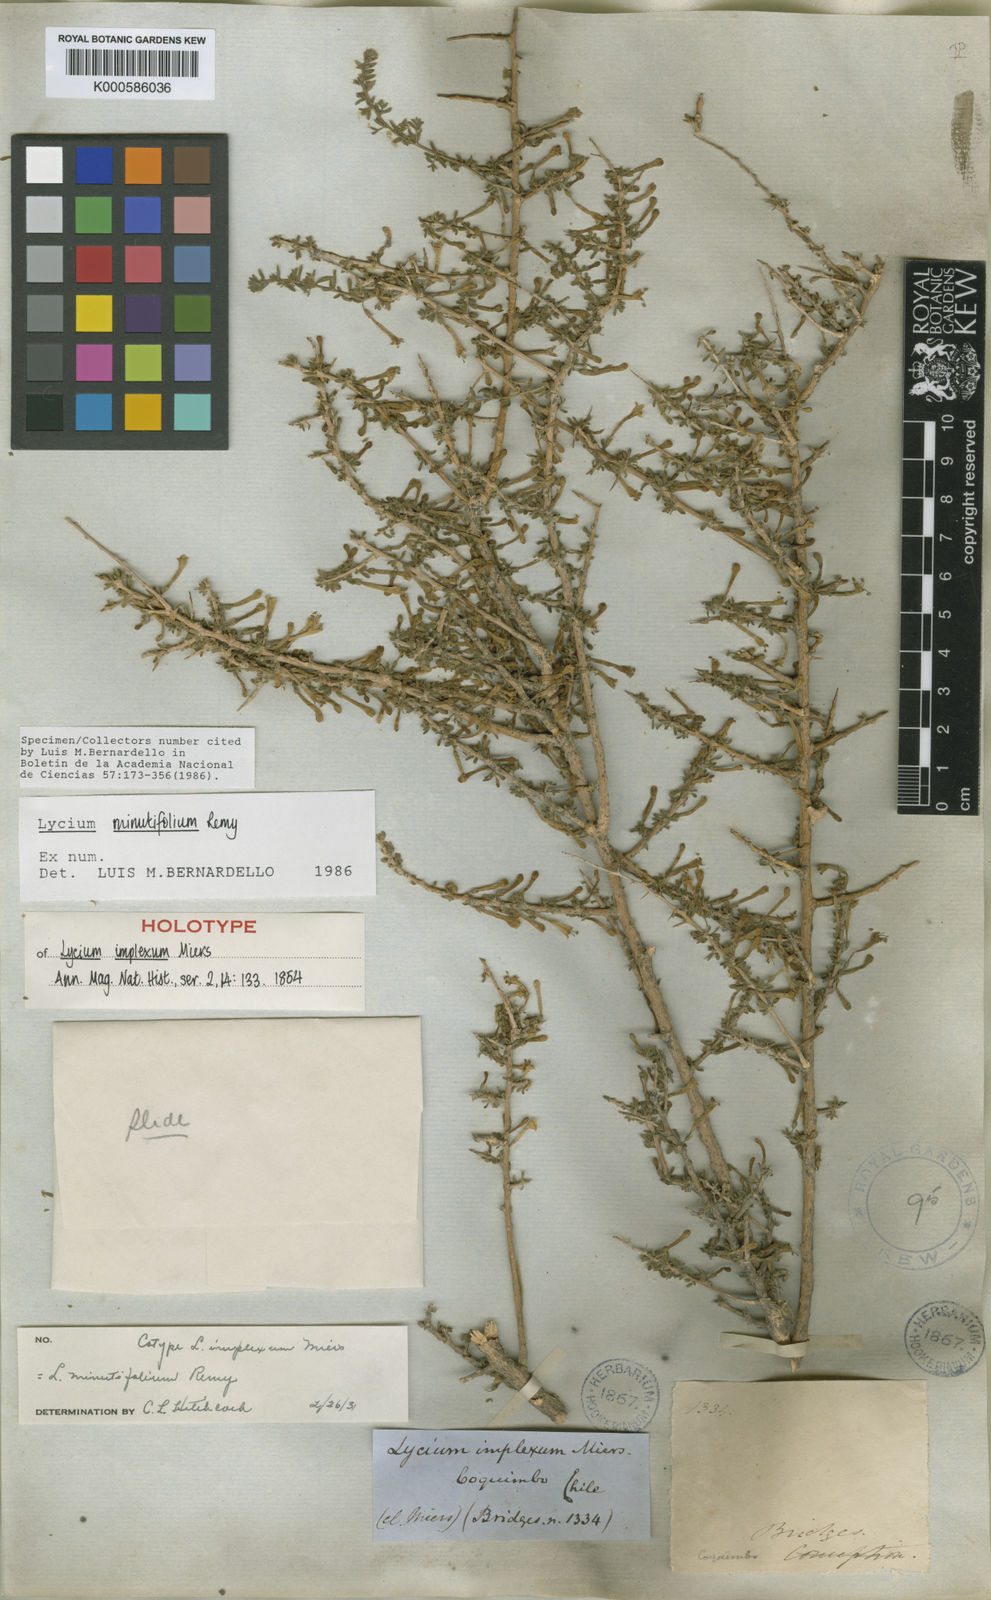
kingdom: Plantae
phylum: Tracheophyta
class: Magnoliopsida
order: Solanales
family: Solanaceae
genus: Lycium
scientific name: Lycium
